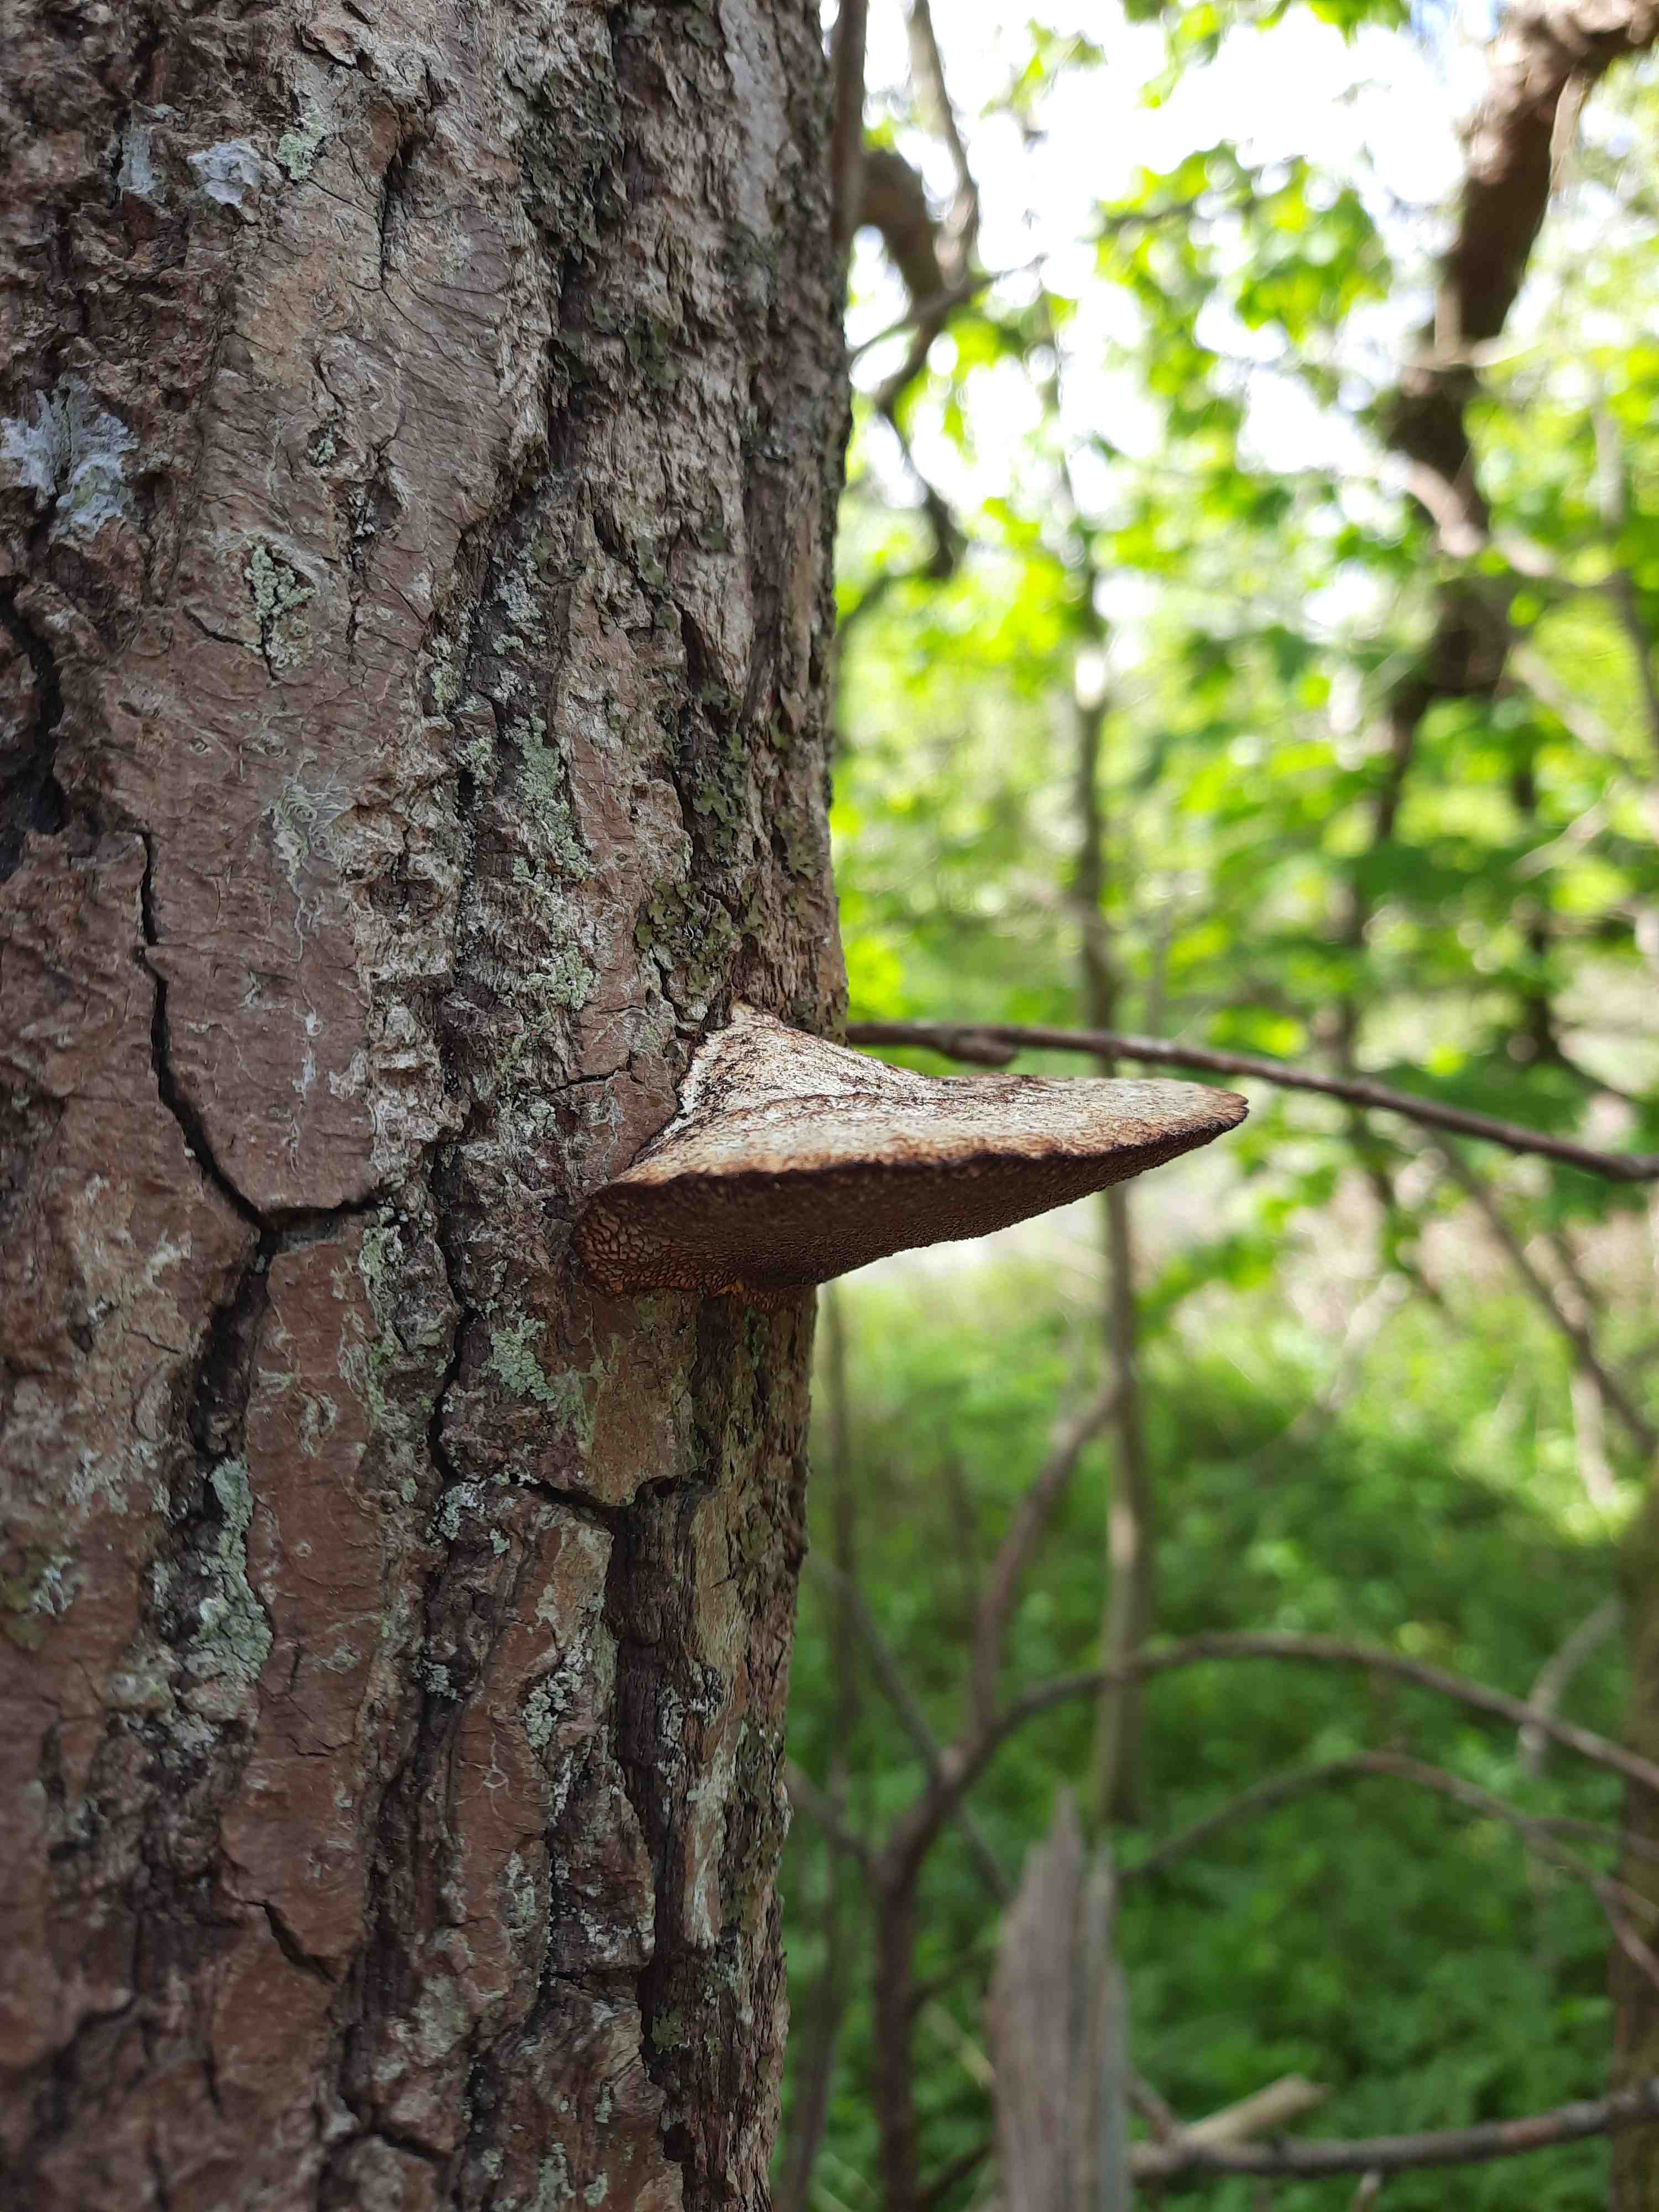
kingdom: Fungi
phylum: Basidiomycota
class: Agaricomycetes
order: Polyporales
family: Polyporaceae
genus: Daedaleopsis
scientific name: Daedaleopsis confragosa
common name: rødmende læderporesvamp
